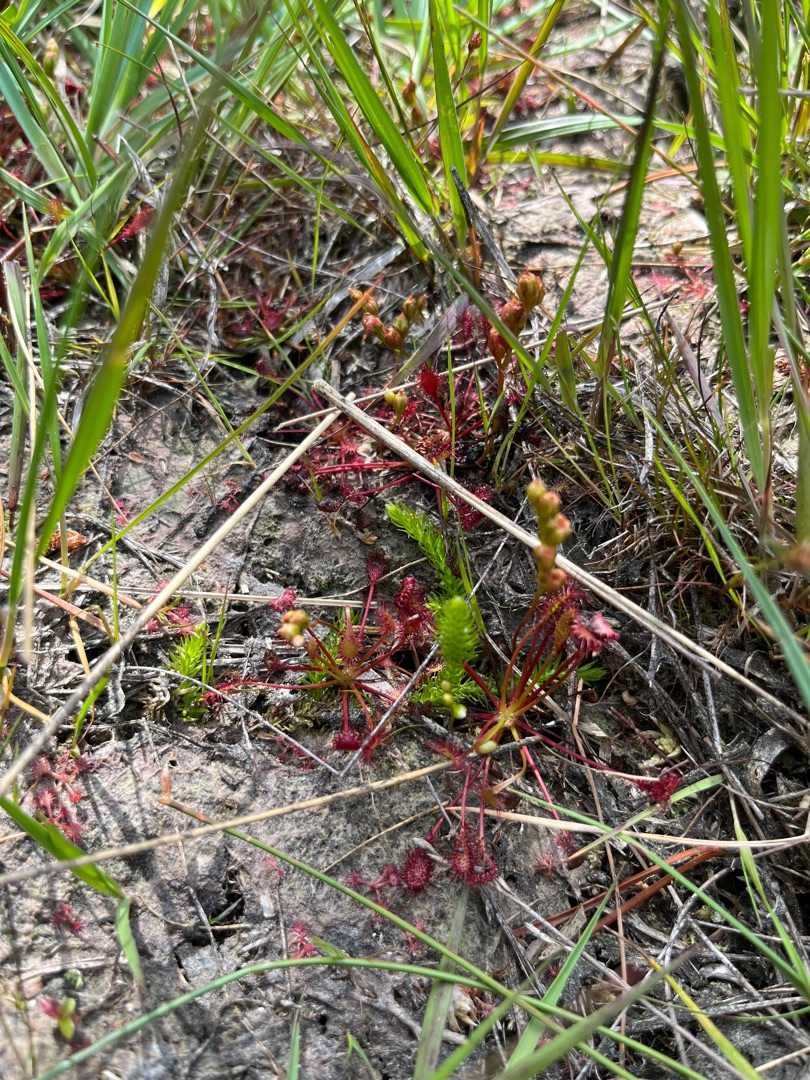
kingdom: Plantae
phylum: Tracheophyta
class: Lycopodiopsida
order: Lycopodiales
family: Lycopodiaceae
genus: Lycopodiella
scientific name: Lycopodiella inundata
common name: Liden ulvefod
